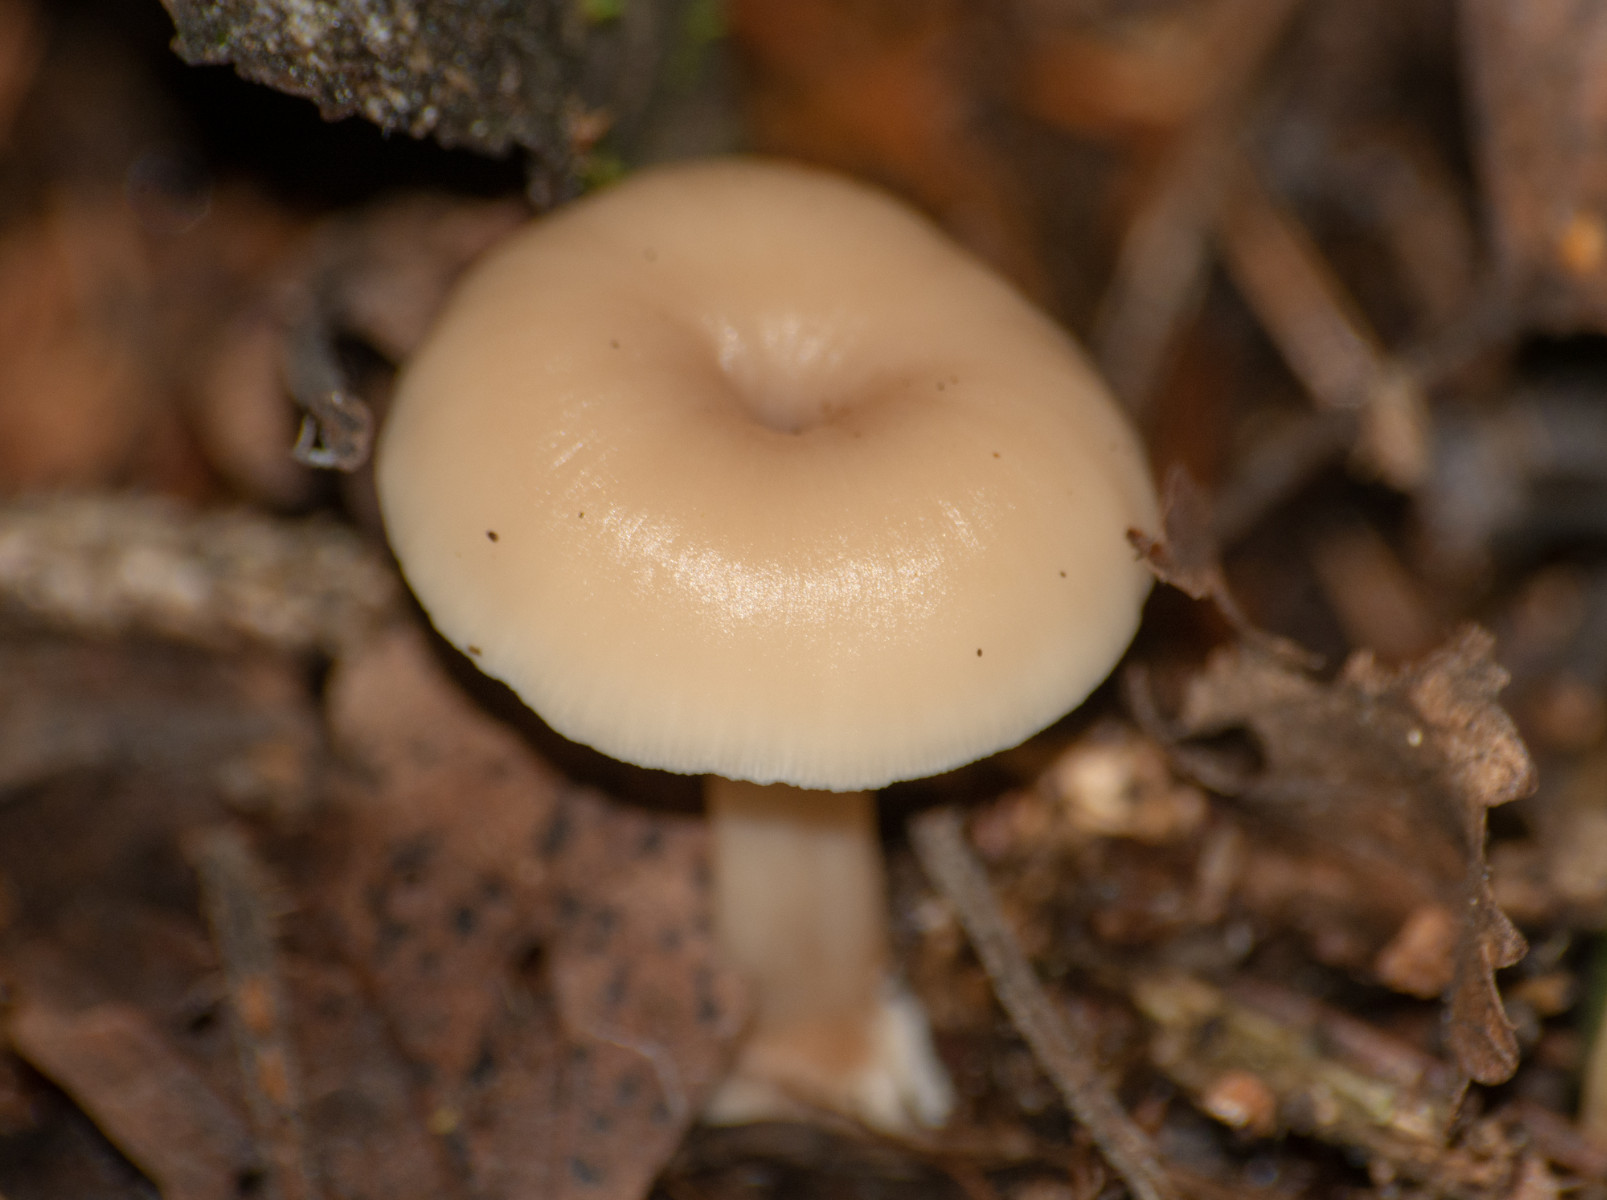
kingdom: Fungi
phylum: Basidiomycota
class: Agaricomycetes
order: Russulales
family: Auriscalpiaceae
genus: Lentinellus
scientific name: Lentinellus flabelliformis
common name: navle-savbladhat
